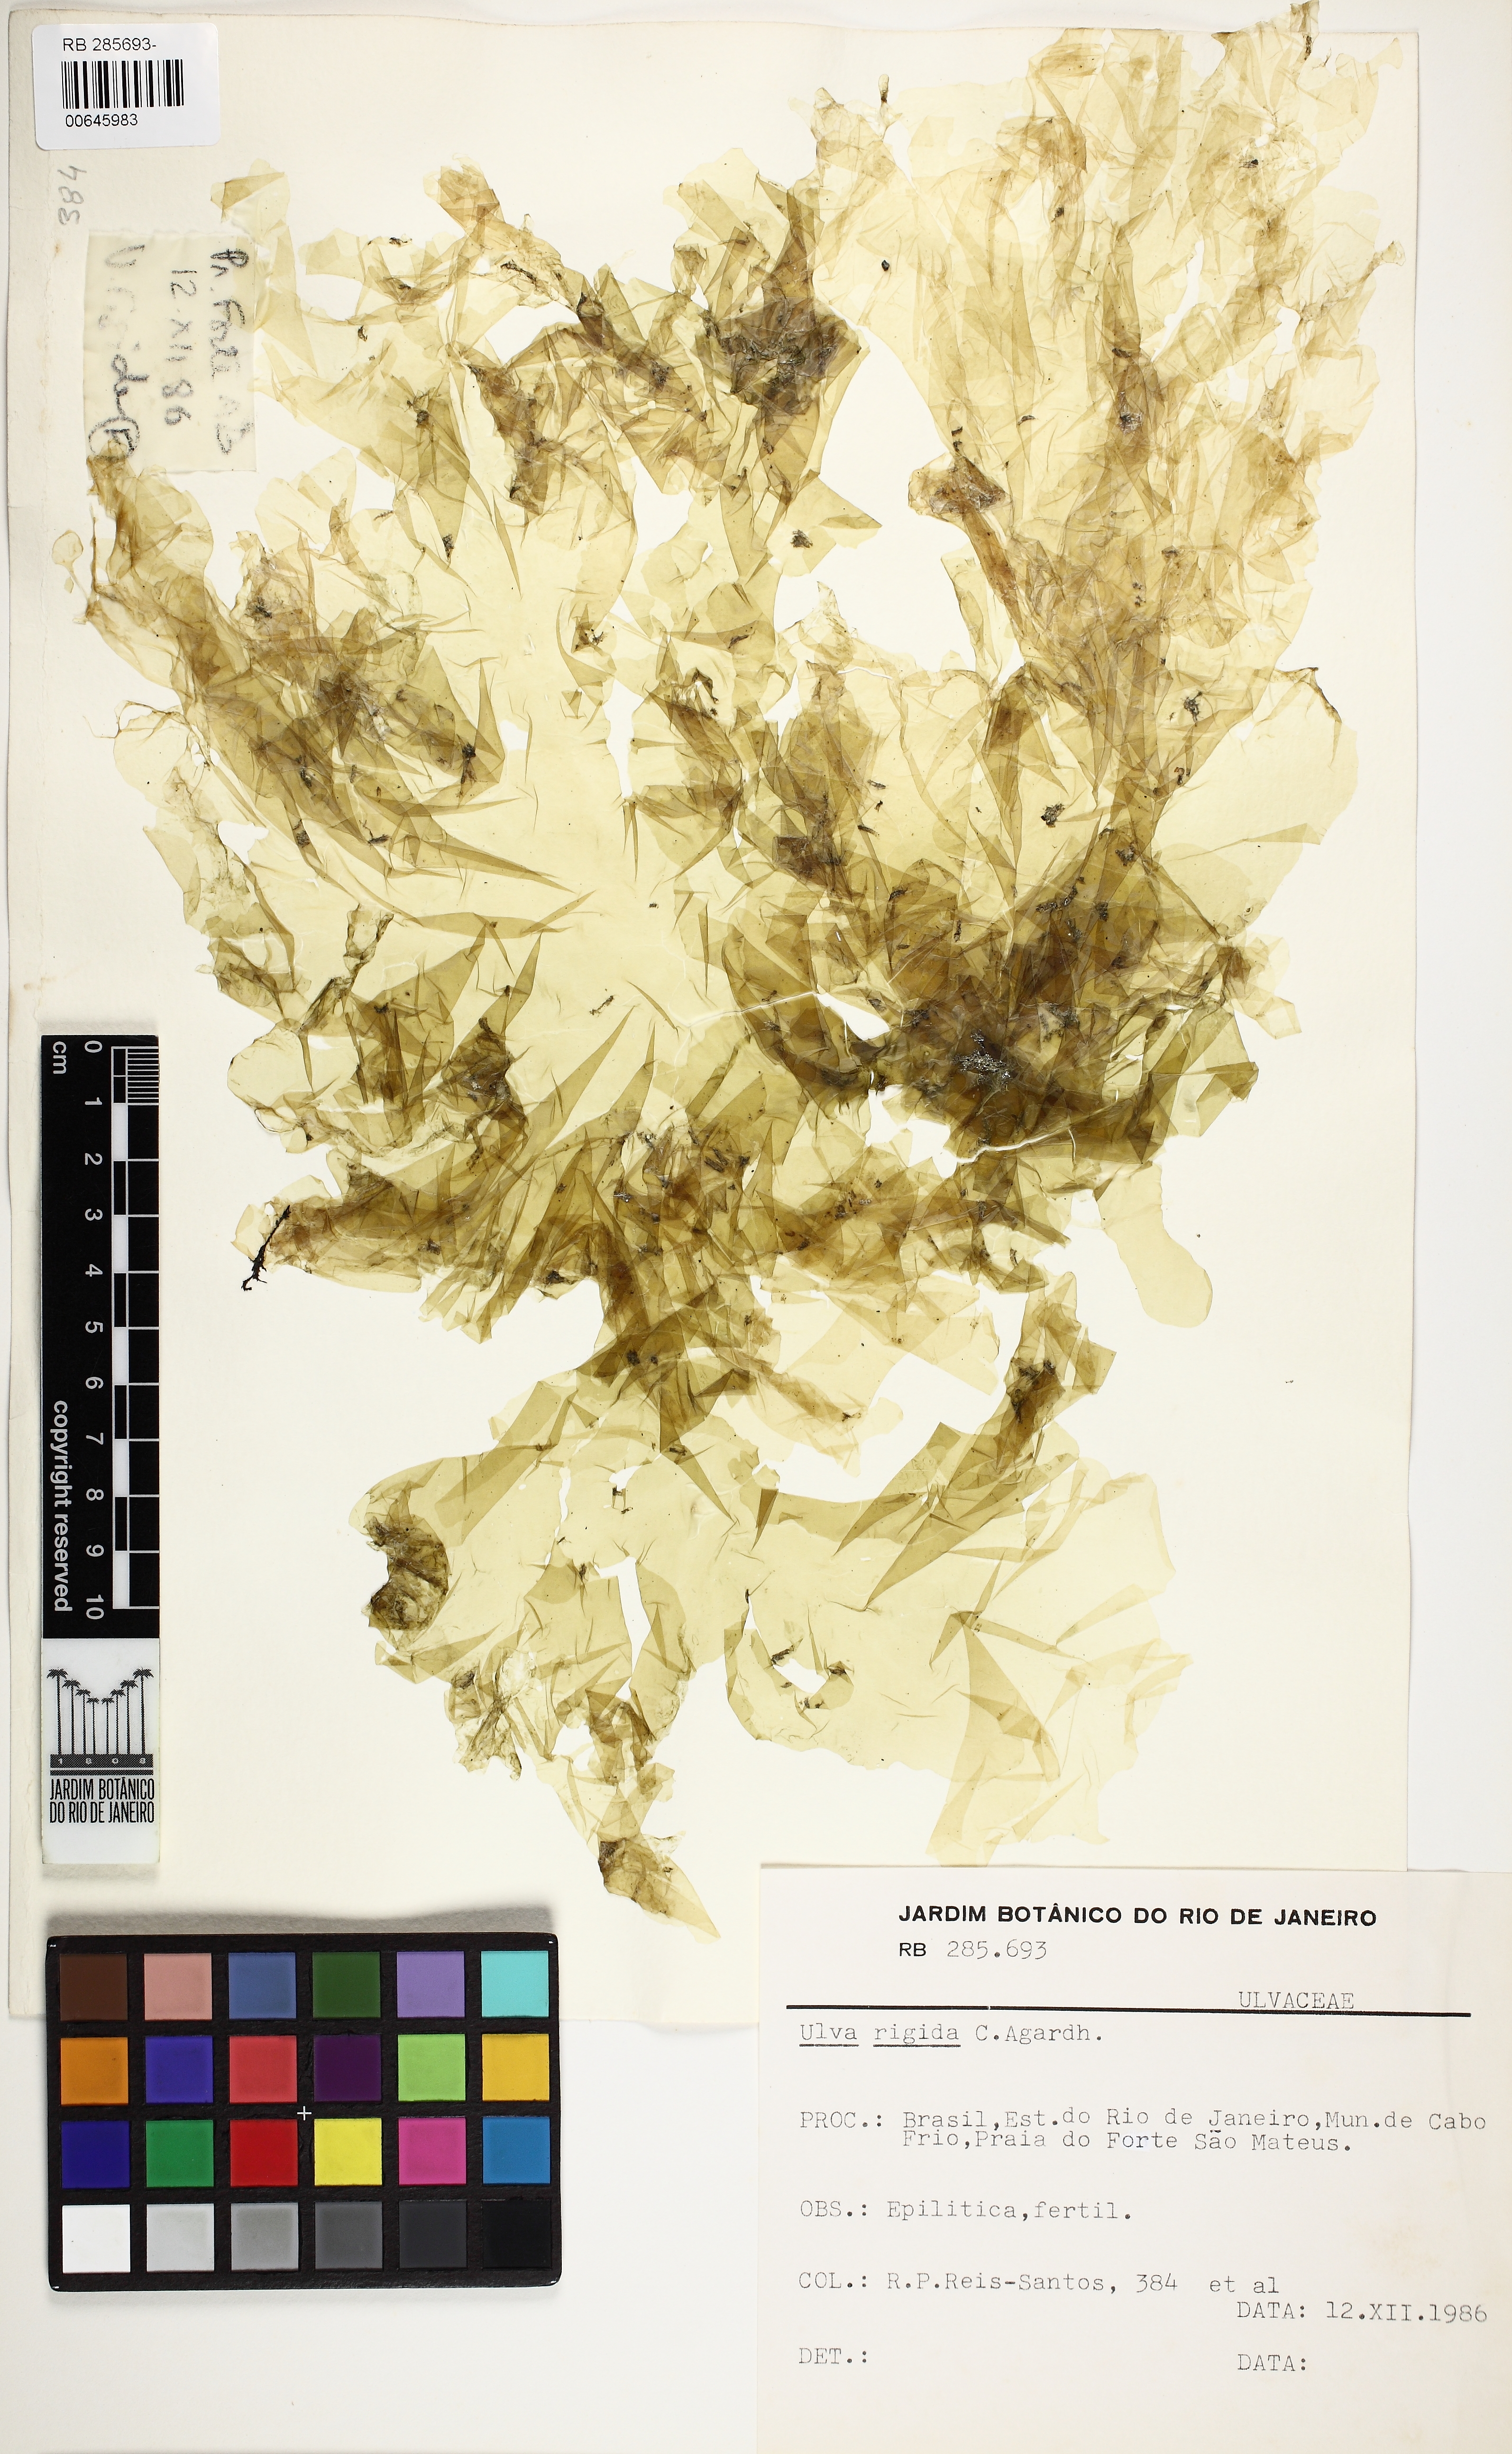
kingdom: Plantae
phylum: Chlorophyta
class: Ulvophyceae
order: Ulvales
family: Ulvaceae
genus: Ulva
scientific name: Ulva rigida
